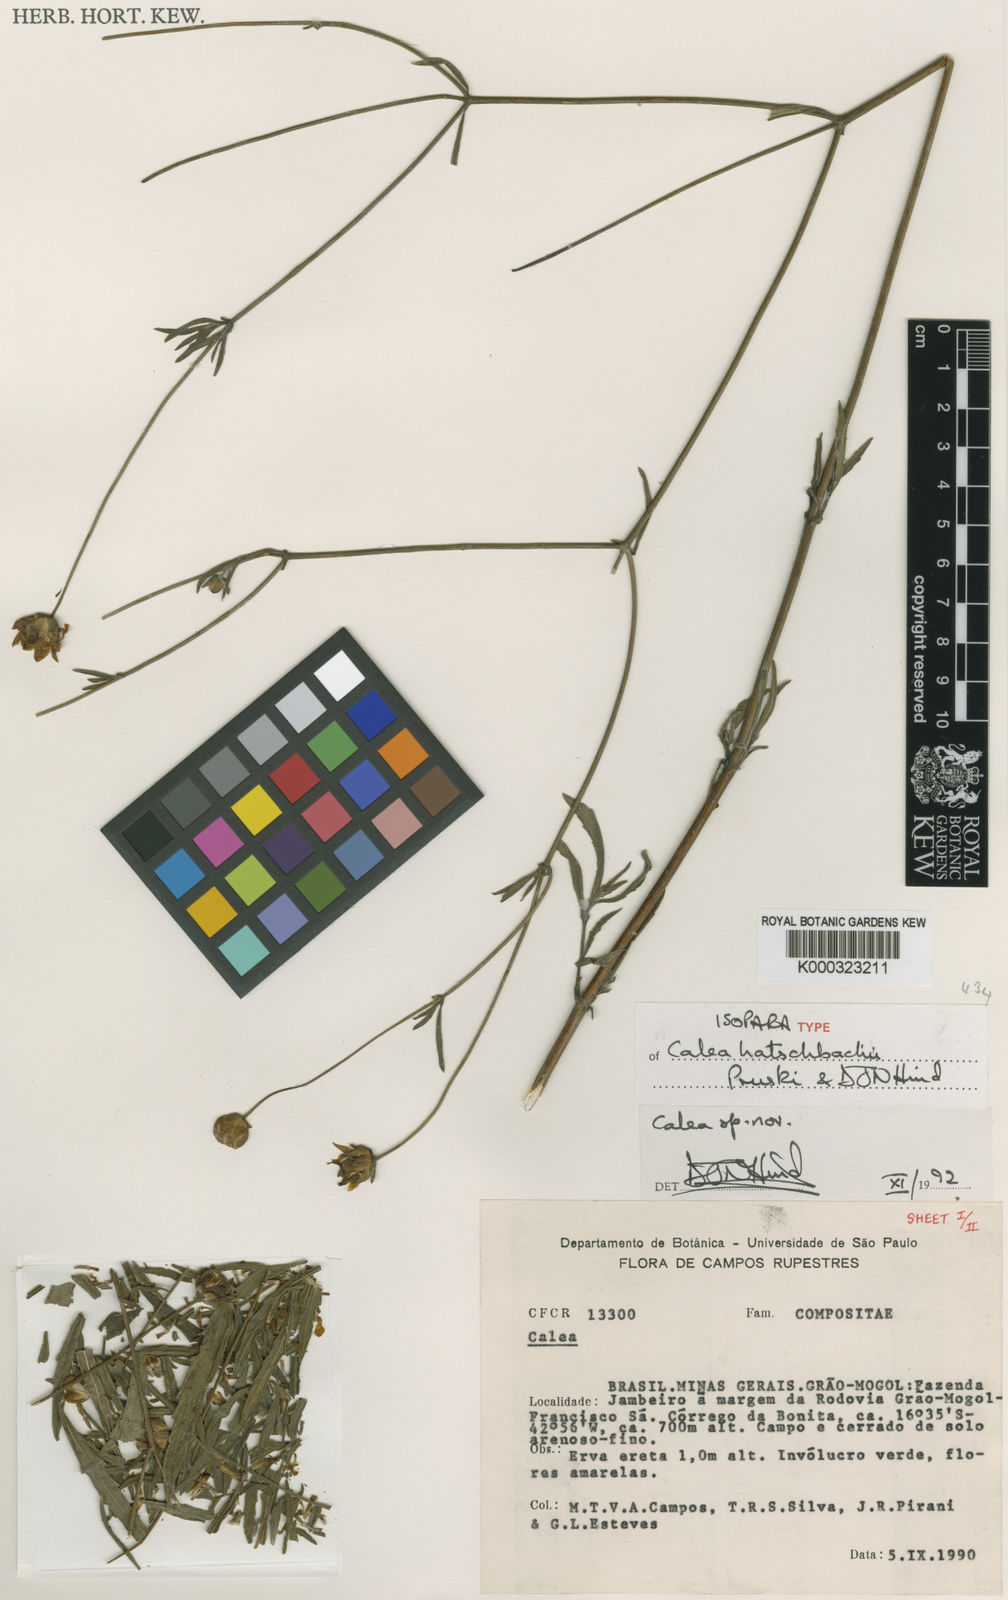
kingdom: Plantae
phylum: Tracheophyta
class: Magnoliopsida
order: Asterales
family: Asteraceae
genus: Calea
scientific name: Calea hatschbachii
